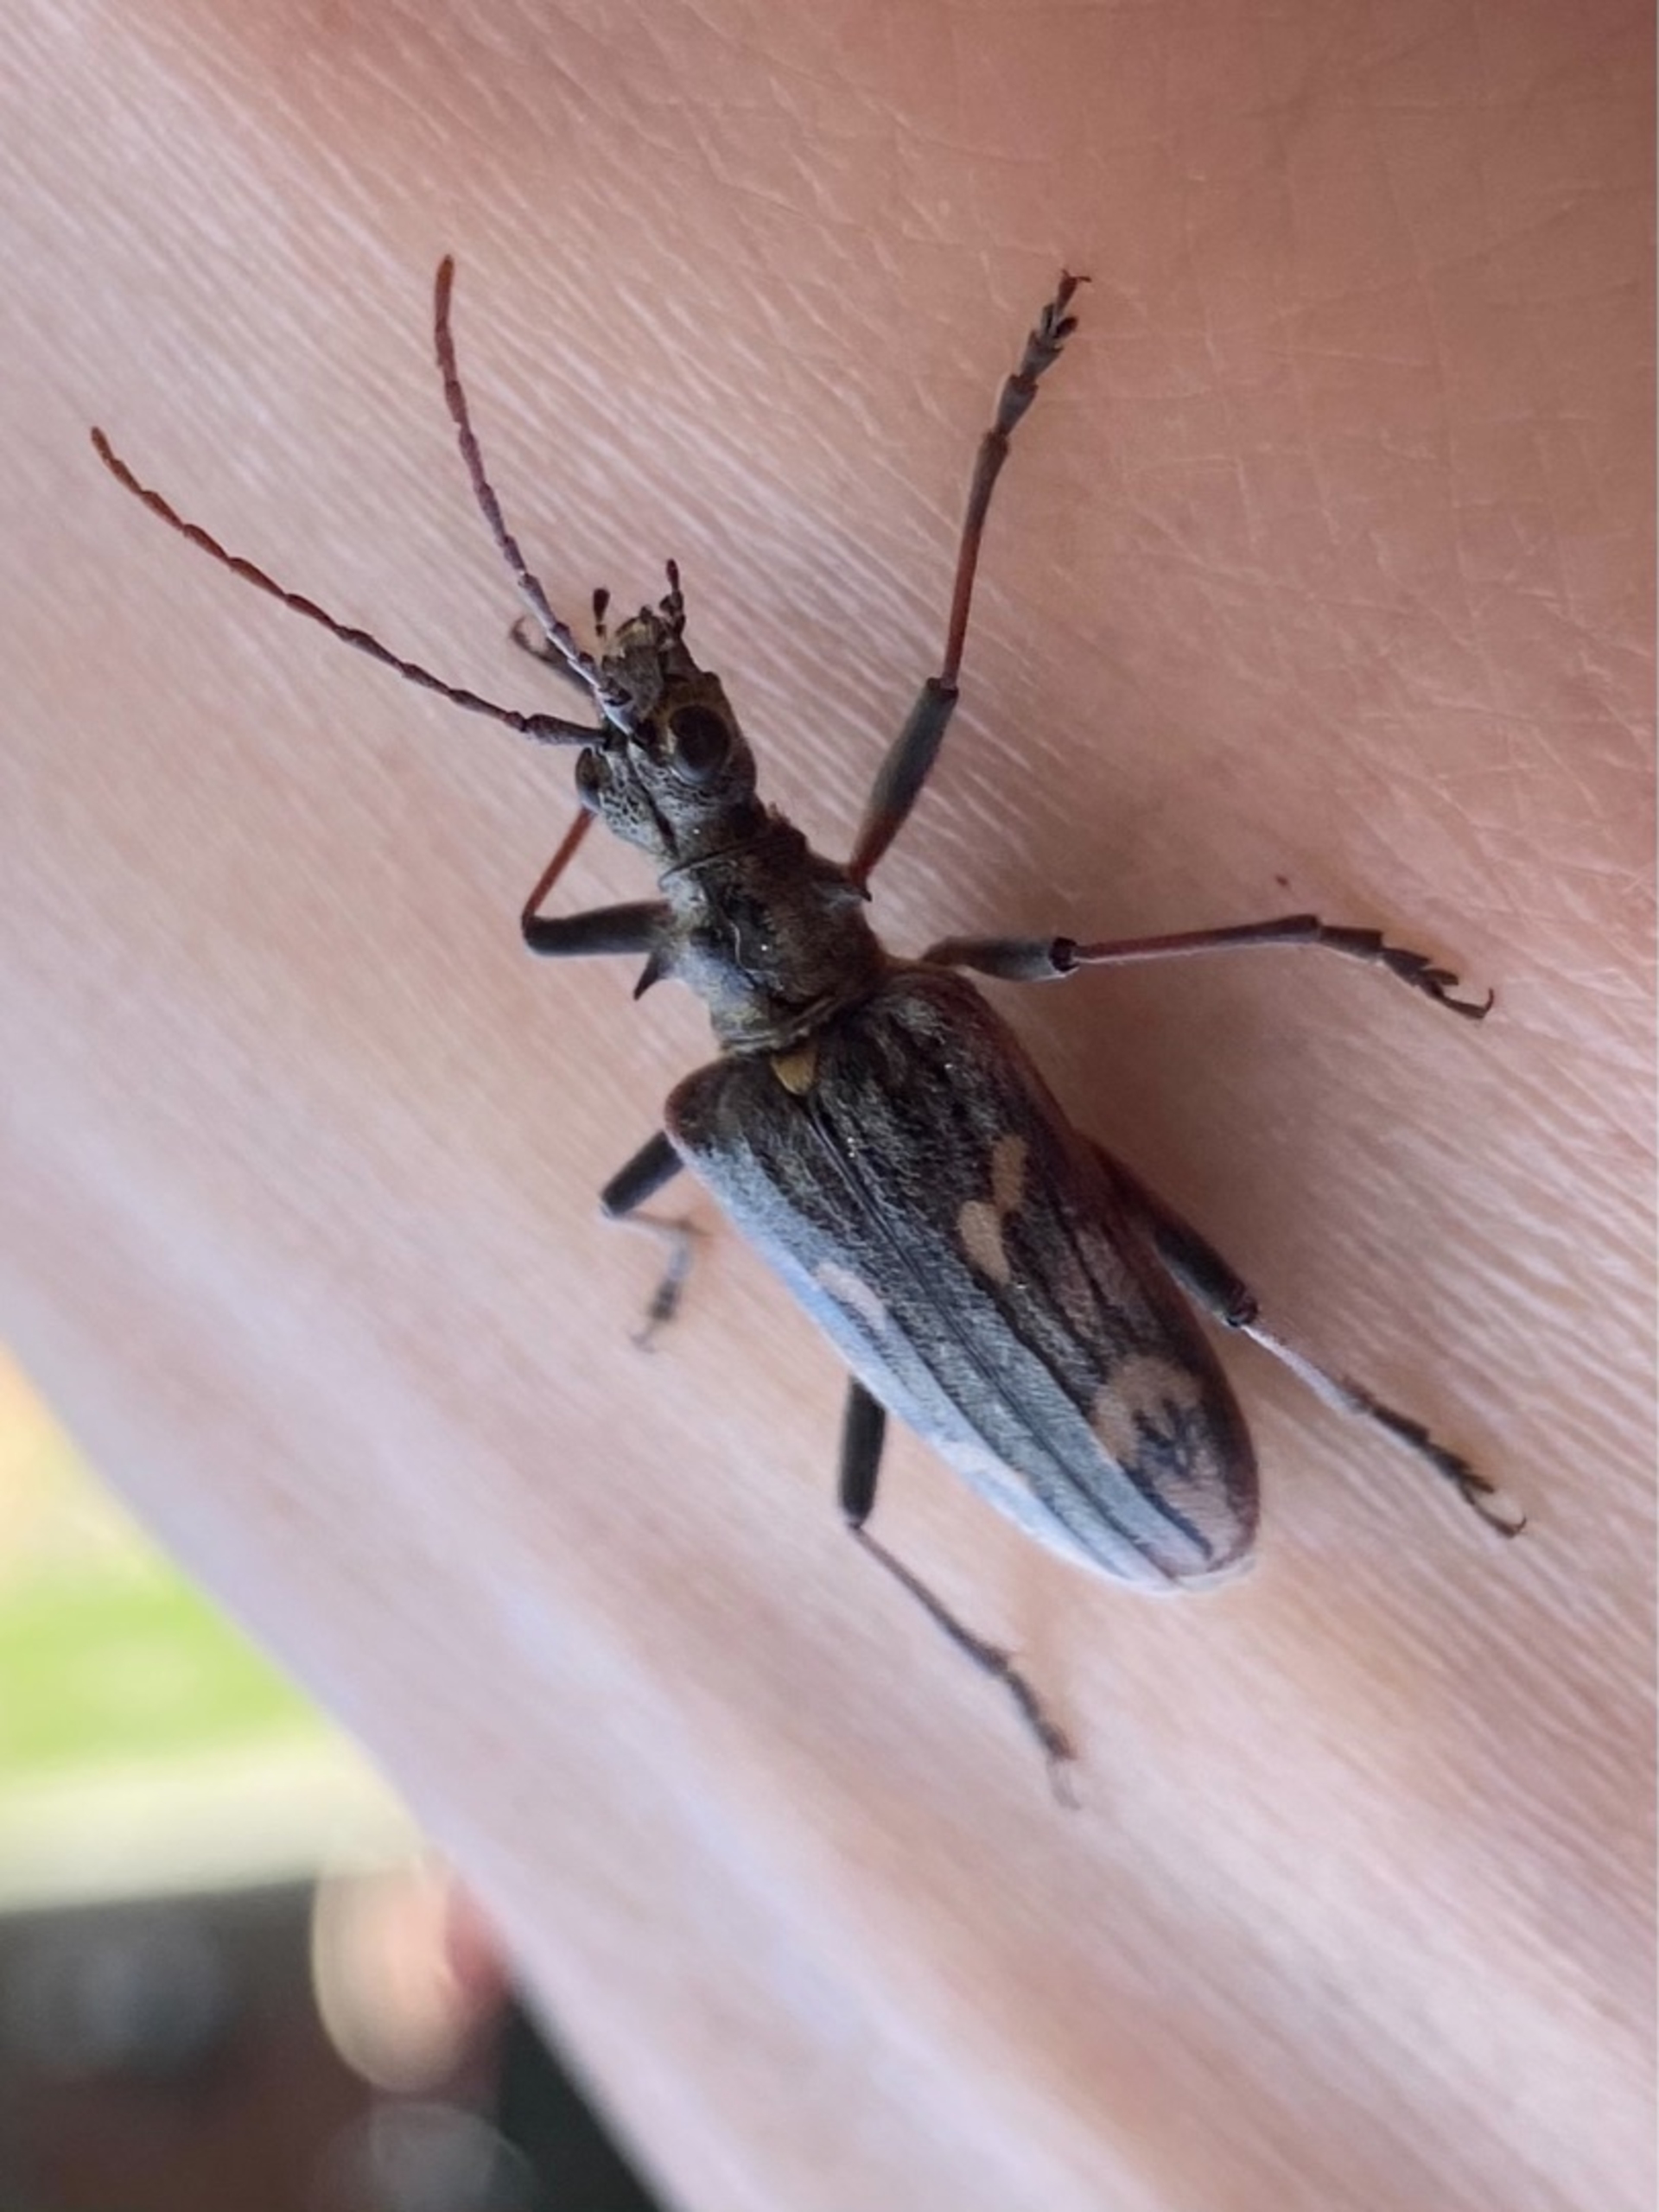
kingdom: Animalia
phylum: Arthropoda
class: Insecta
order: Coleoptera
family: Cerambycidae
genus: Rhagium
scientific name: Rhagium bifasciatum
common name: Båndet tandbuk
